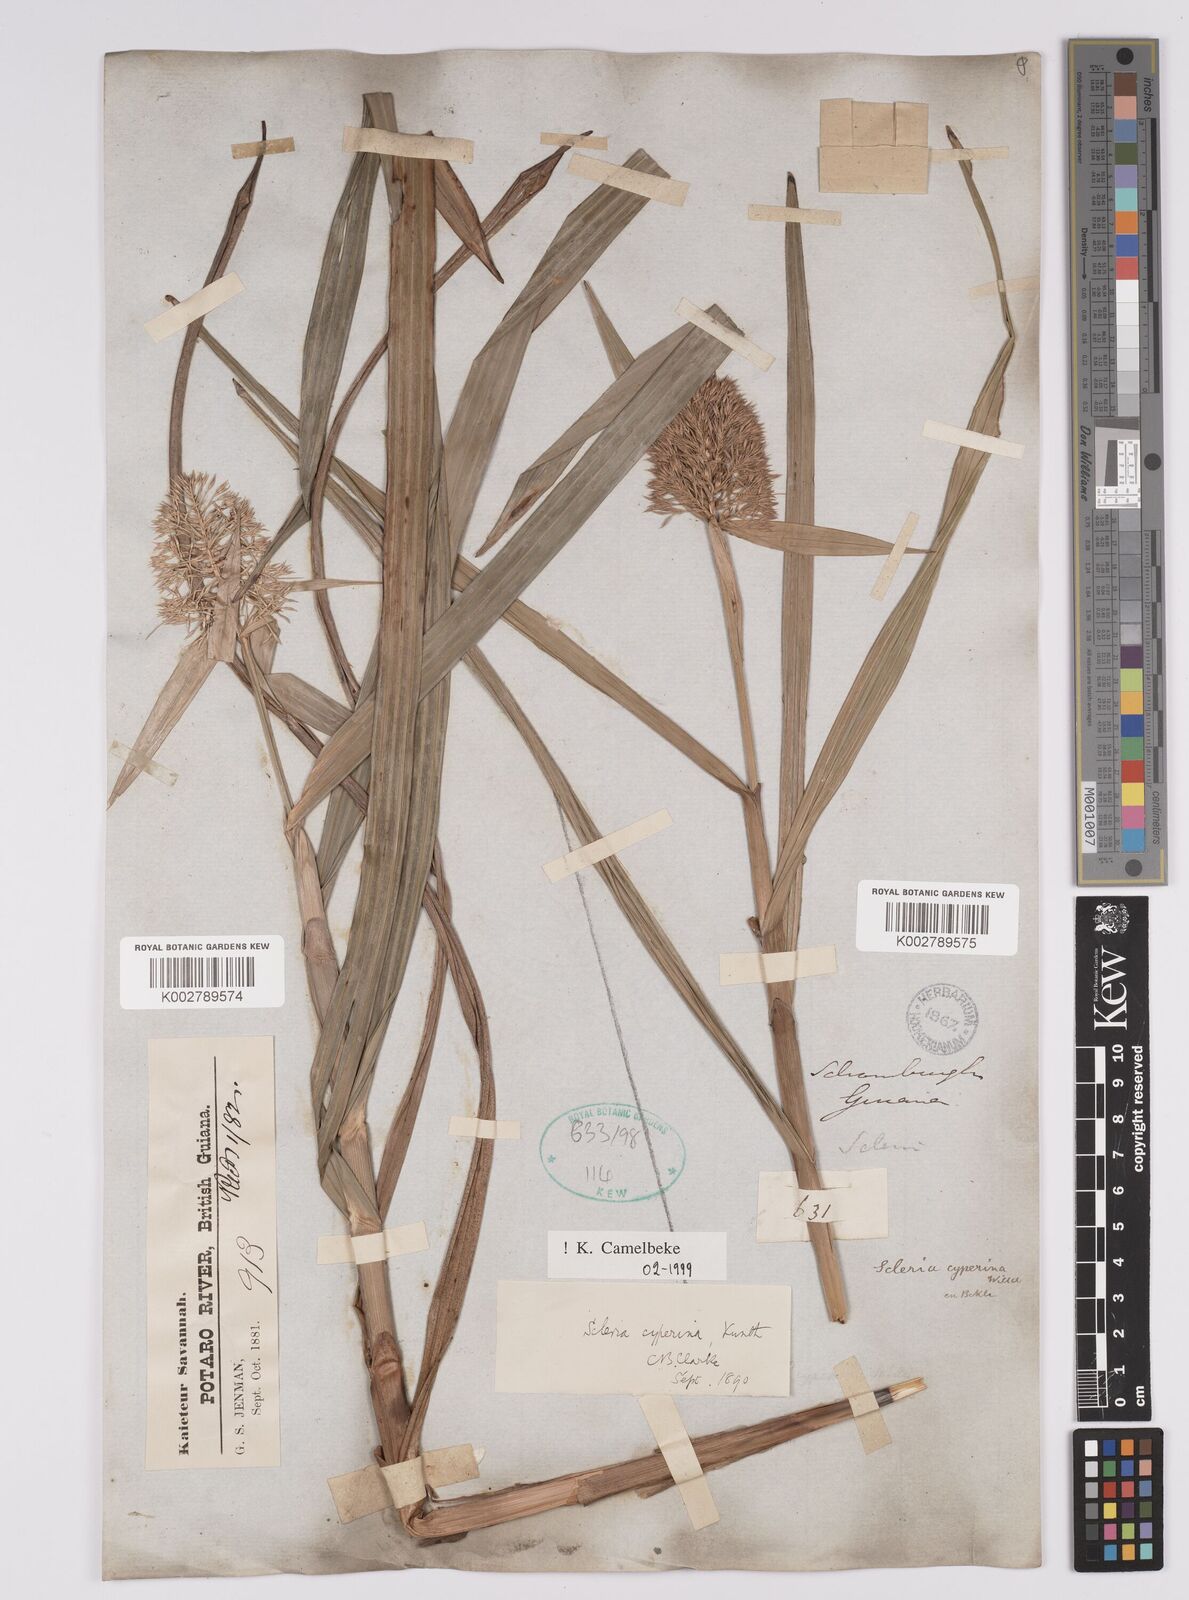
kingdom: Plantae
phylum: Tracheophyta
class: Liliopsida
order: Poales
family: Cyperaceae
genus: Scleria
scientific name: Scleria cyperina
